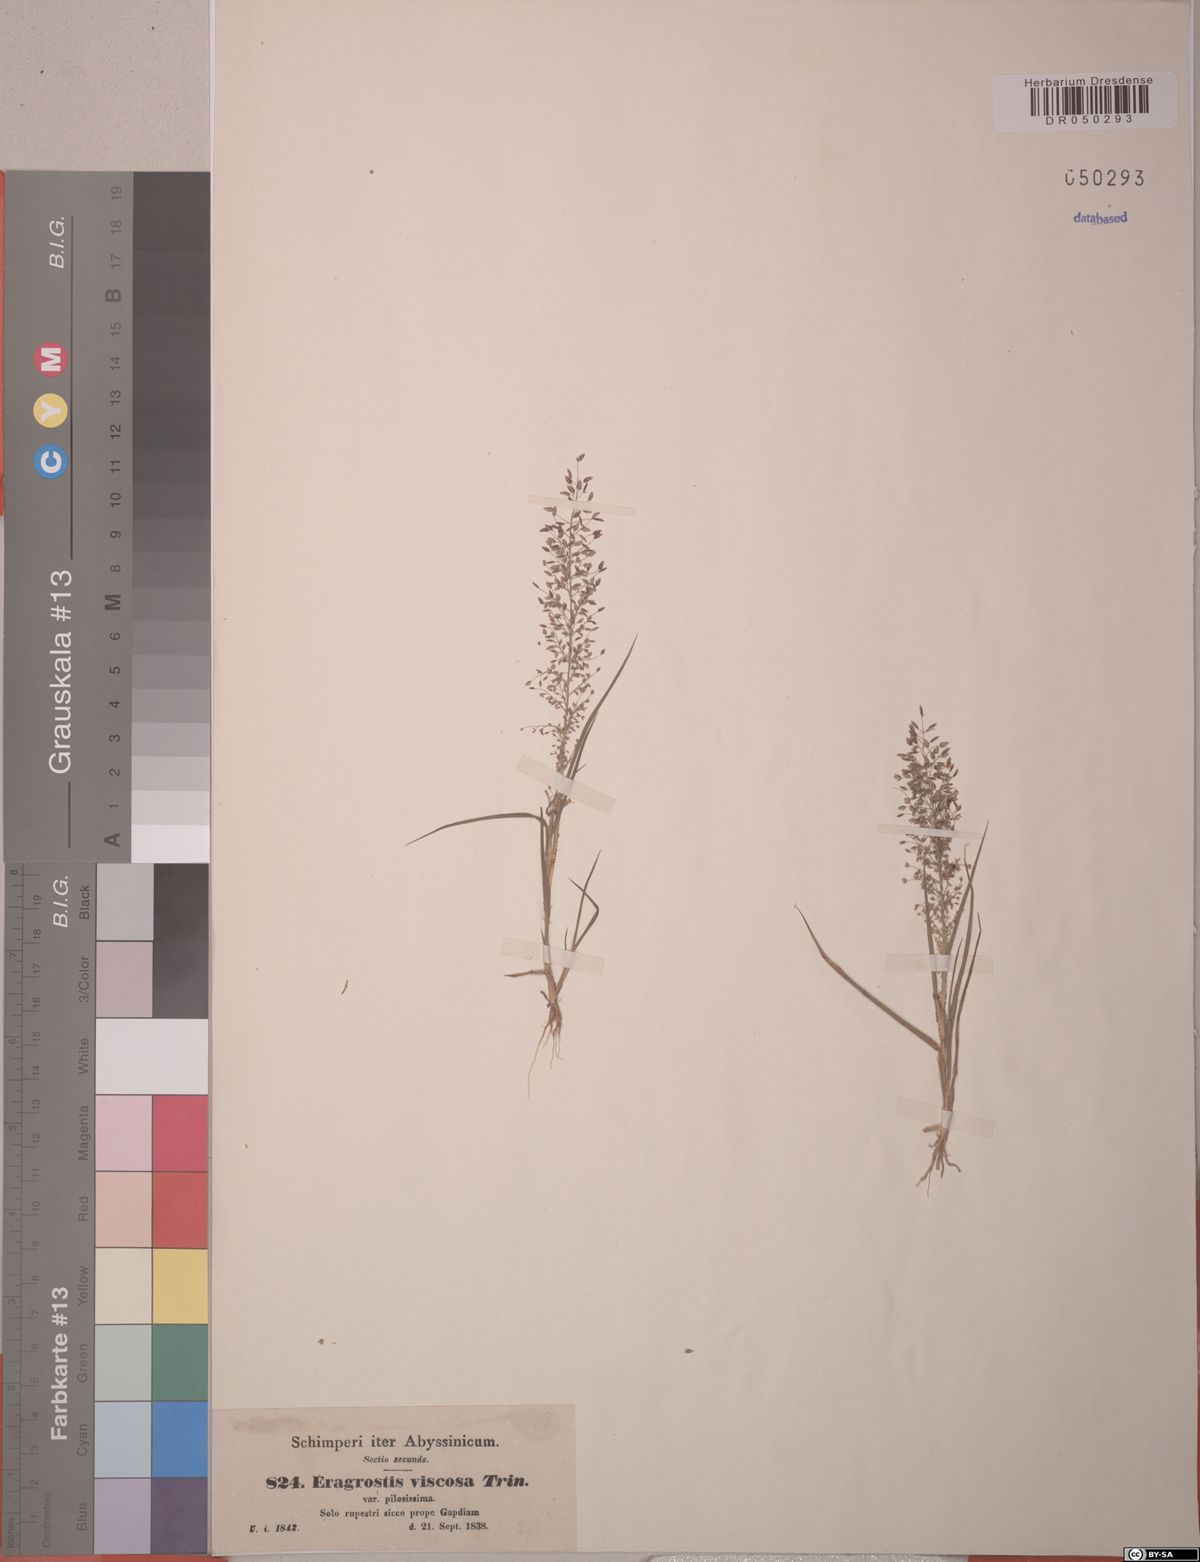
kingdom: Plantae
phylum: Tracheophyta
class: Liliopsida
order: Poales
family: Poaceae
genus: Eragrostis
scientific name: Eragrostis viscosa
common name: Sticky love grass
